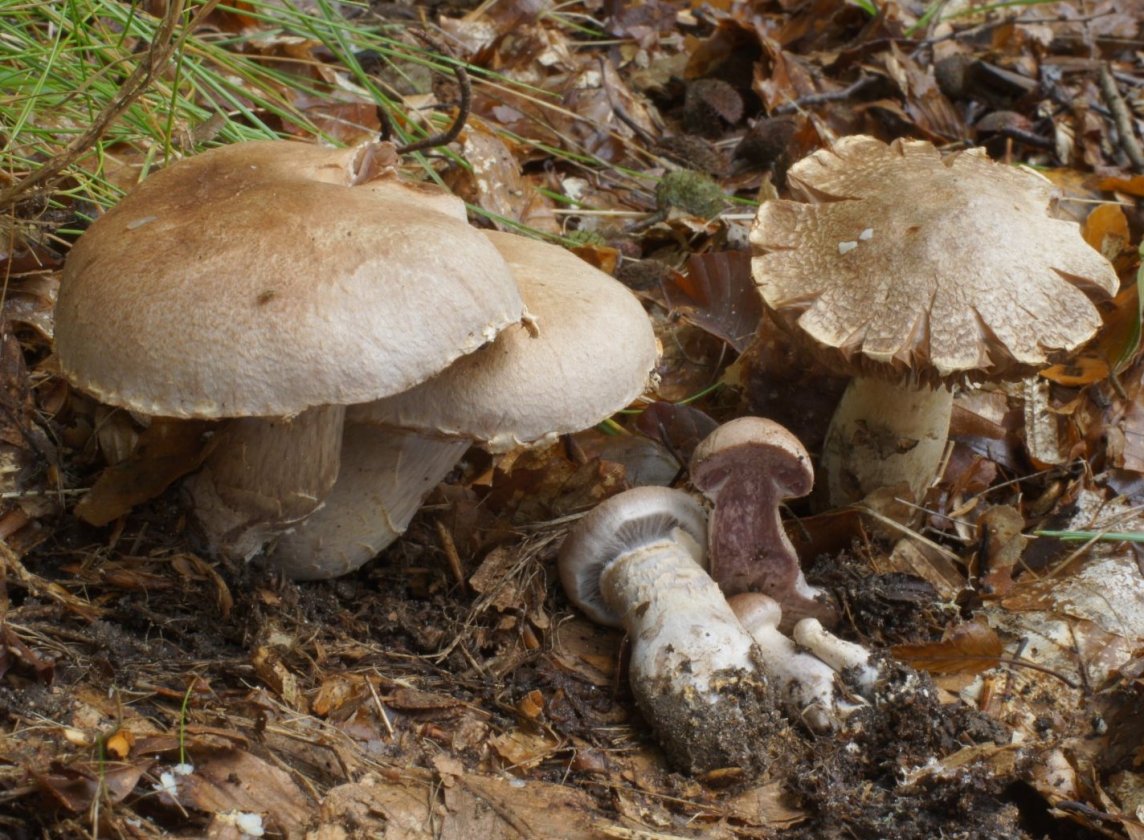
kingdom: Fungi
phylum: Basidiomycota
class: Agaricomycetes
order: Agaricales
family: Cortinariaceae
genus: Cortinarius
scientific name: Cortinarius torvus
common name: champignonagtig slørhat
